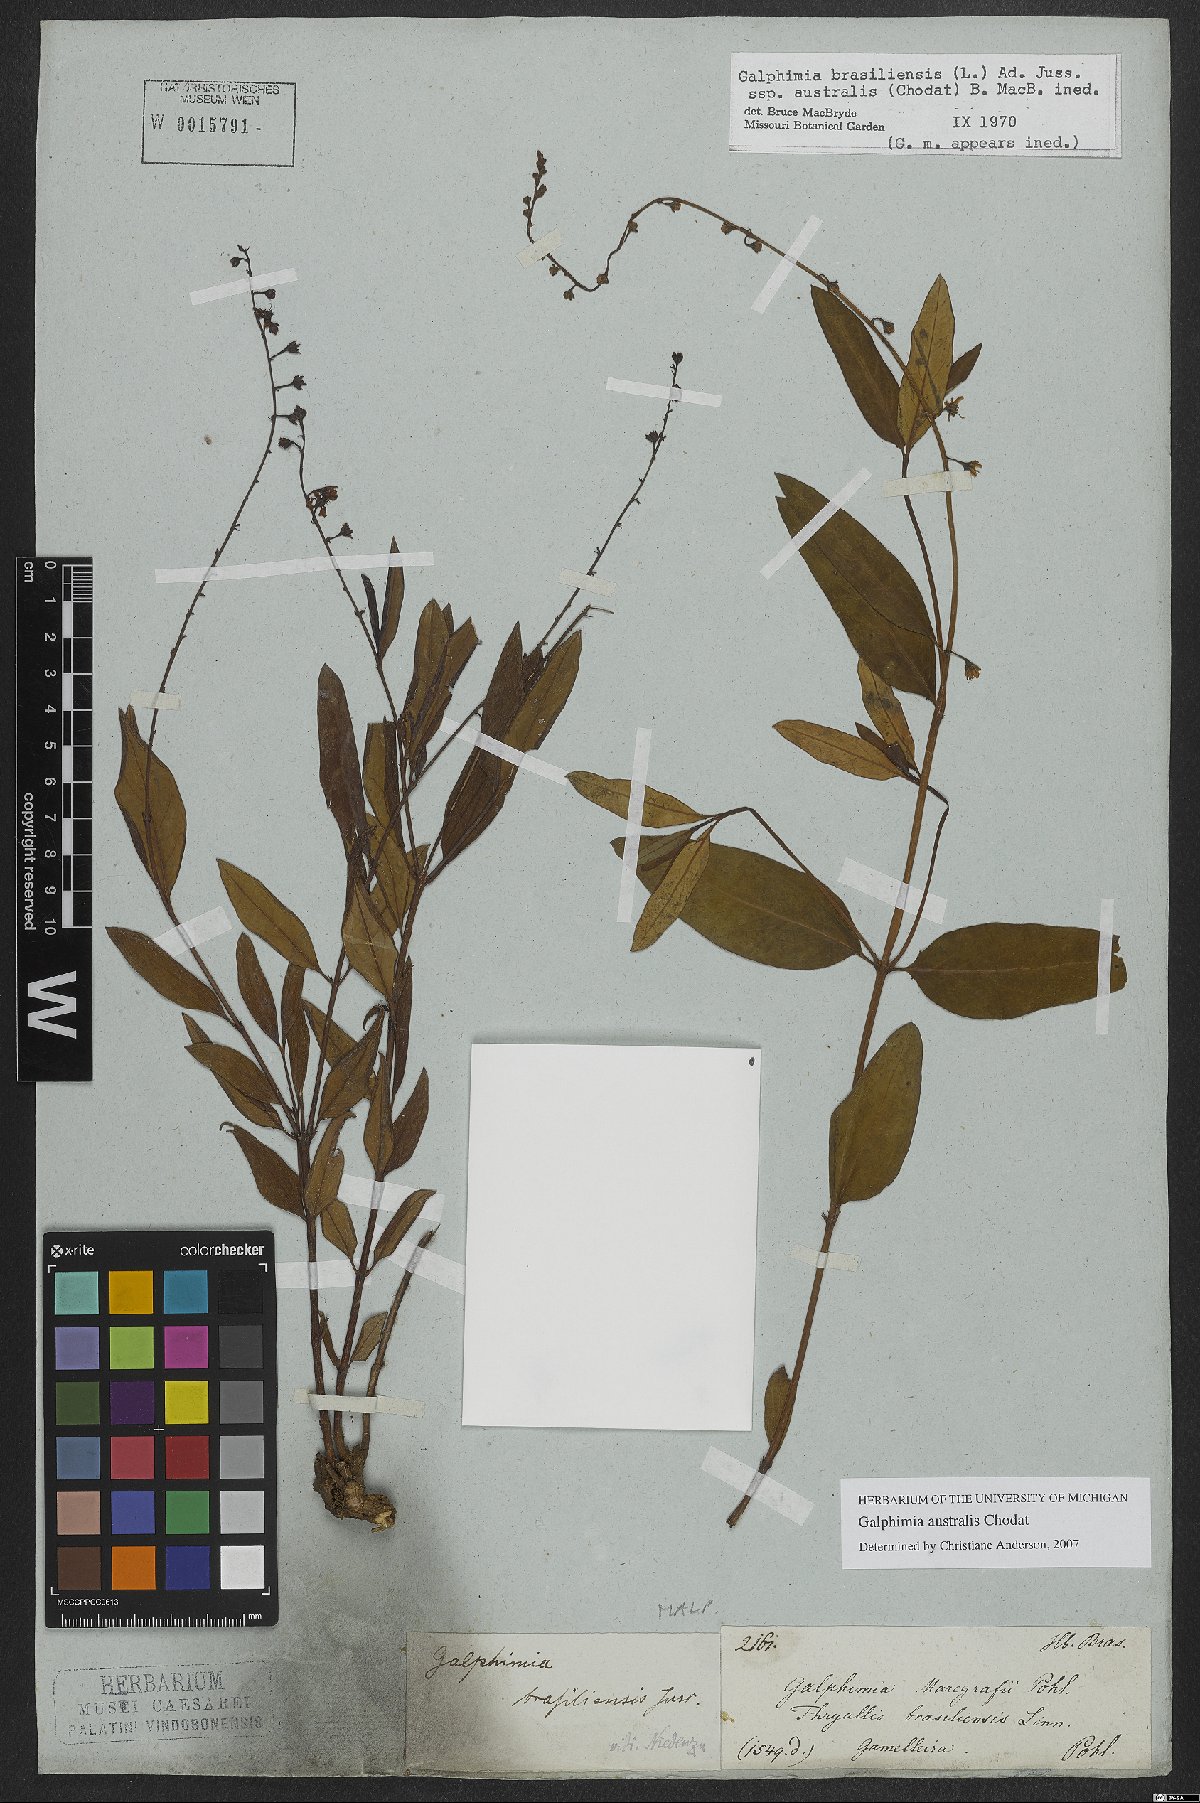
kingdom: Plantae
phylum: Tracheophyta
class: Magnoliopsida
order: Malpighiales
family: Malpighiaceae
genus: Galphimia
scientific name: Galphimia australis
